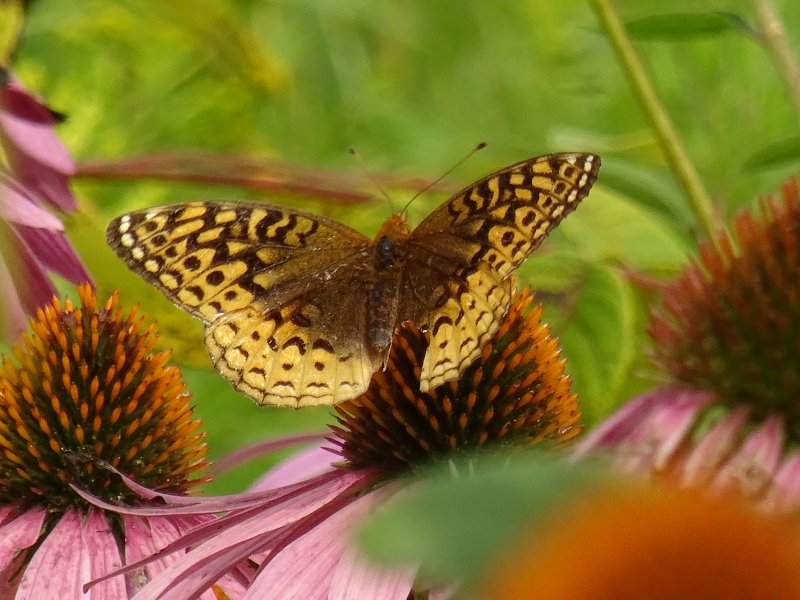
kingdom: Animalia
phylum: Arthropoda
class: Insecta
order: Lepidoptera
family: Nymphalidae
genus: Speyeria
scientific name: Speyeria cybele
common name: Great Spangled Fritillary
